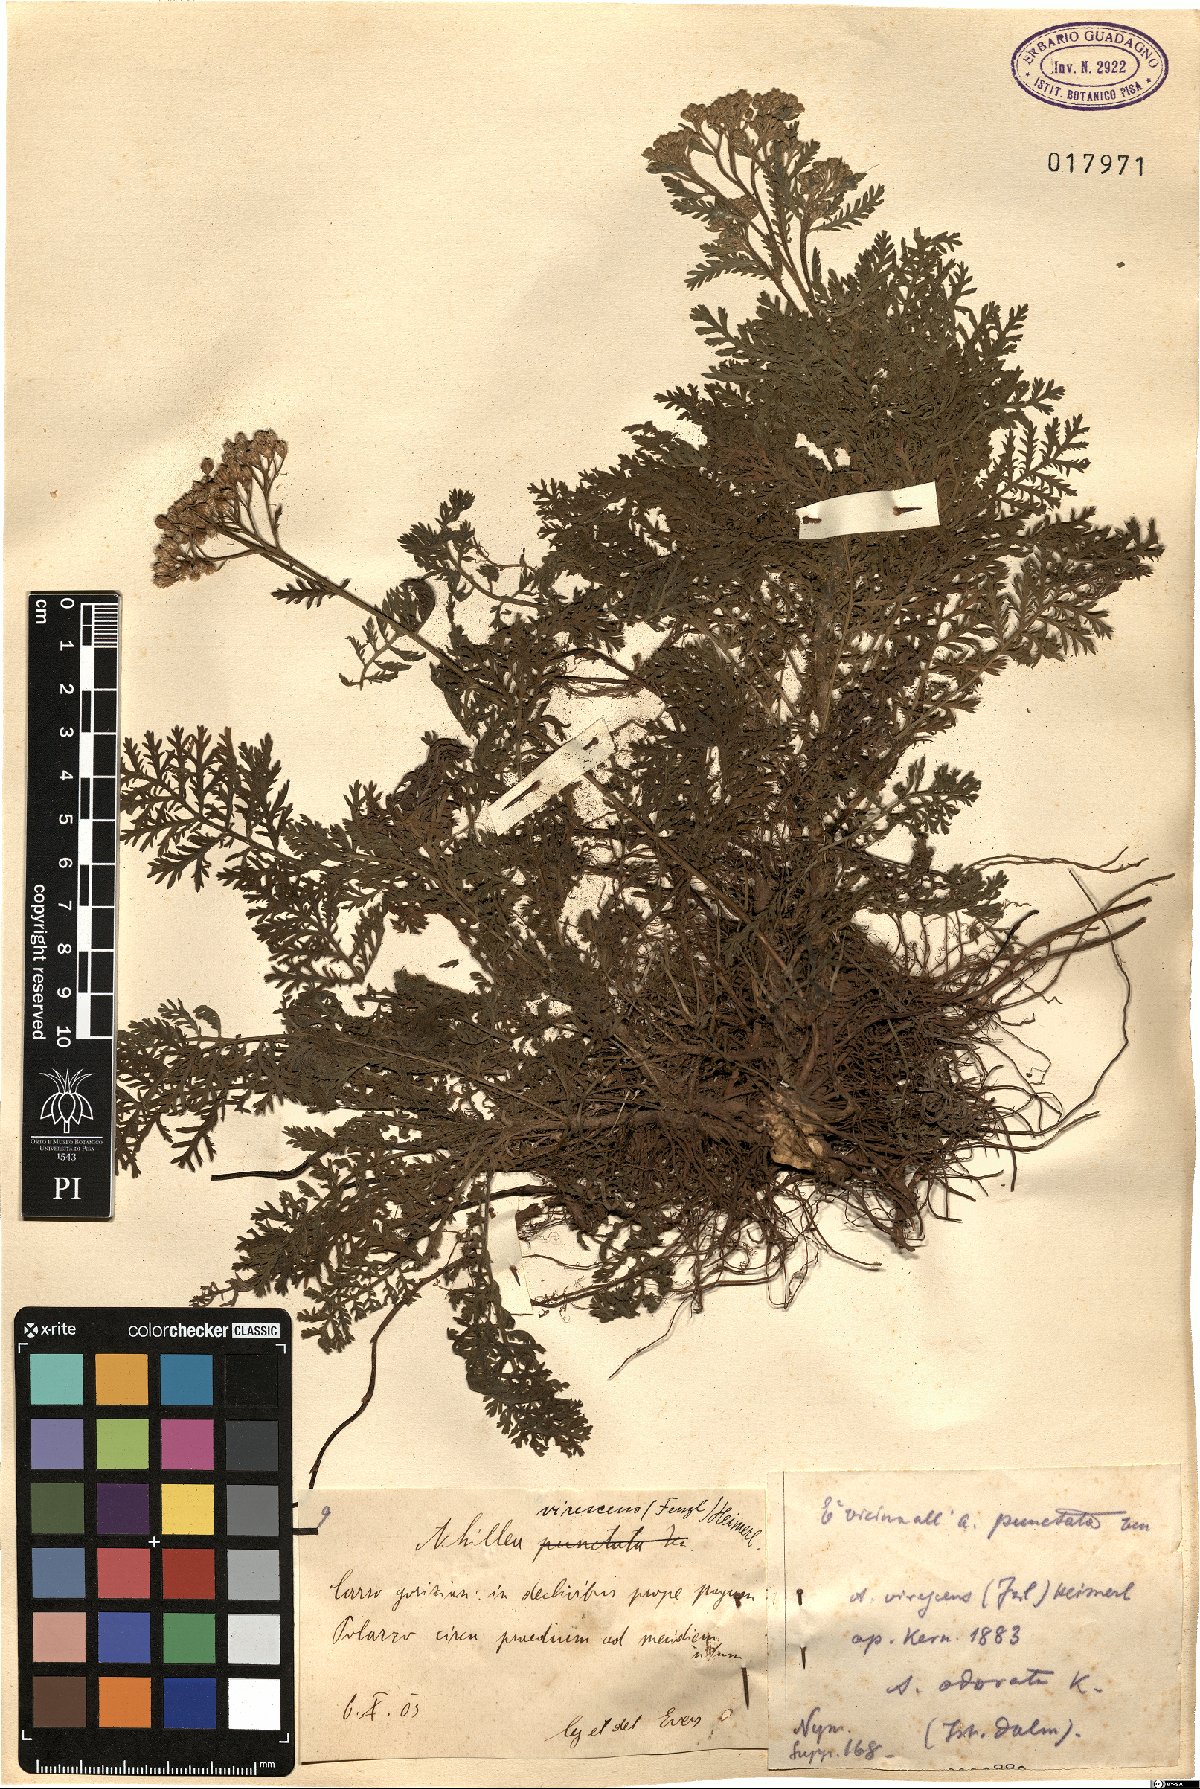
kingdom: Plantae
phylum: Tracheophyta
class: Magnoliopsida
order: Asterales
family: Asteraceae
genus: Achillea
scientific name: Achillea virescens
